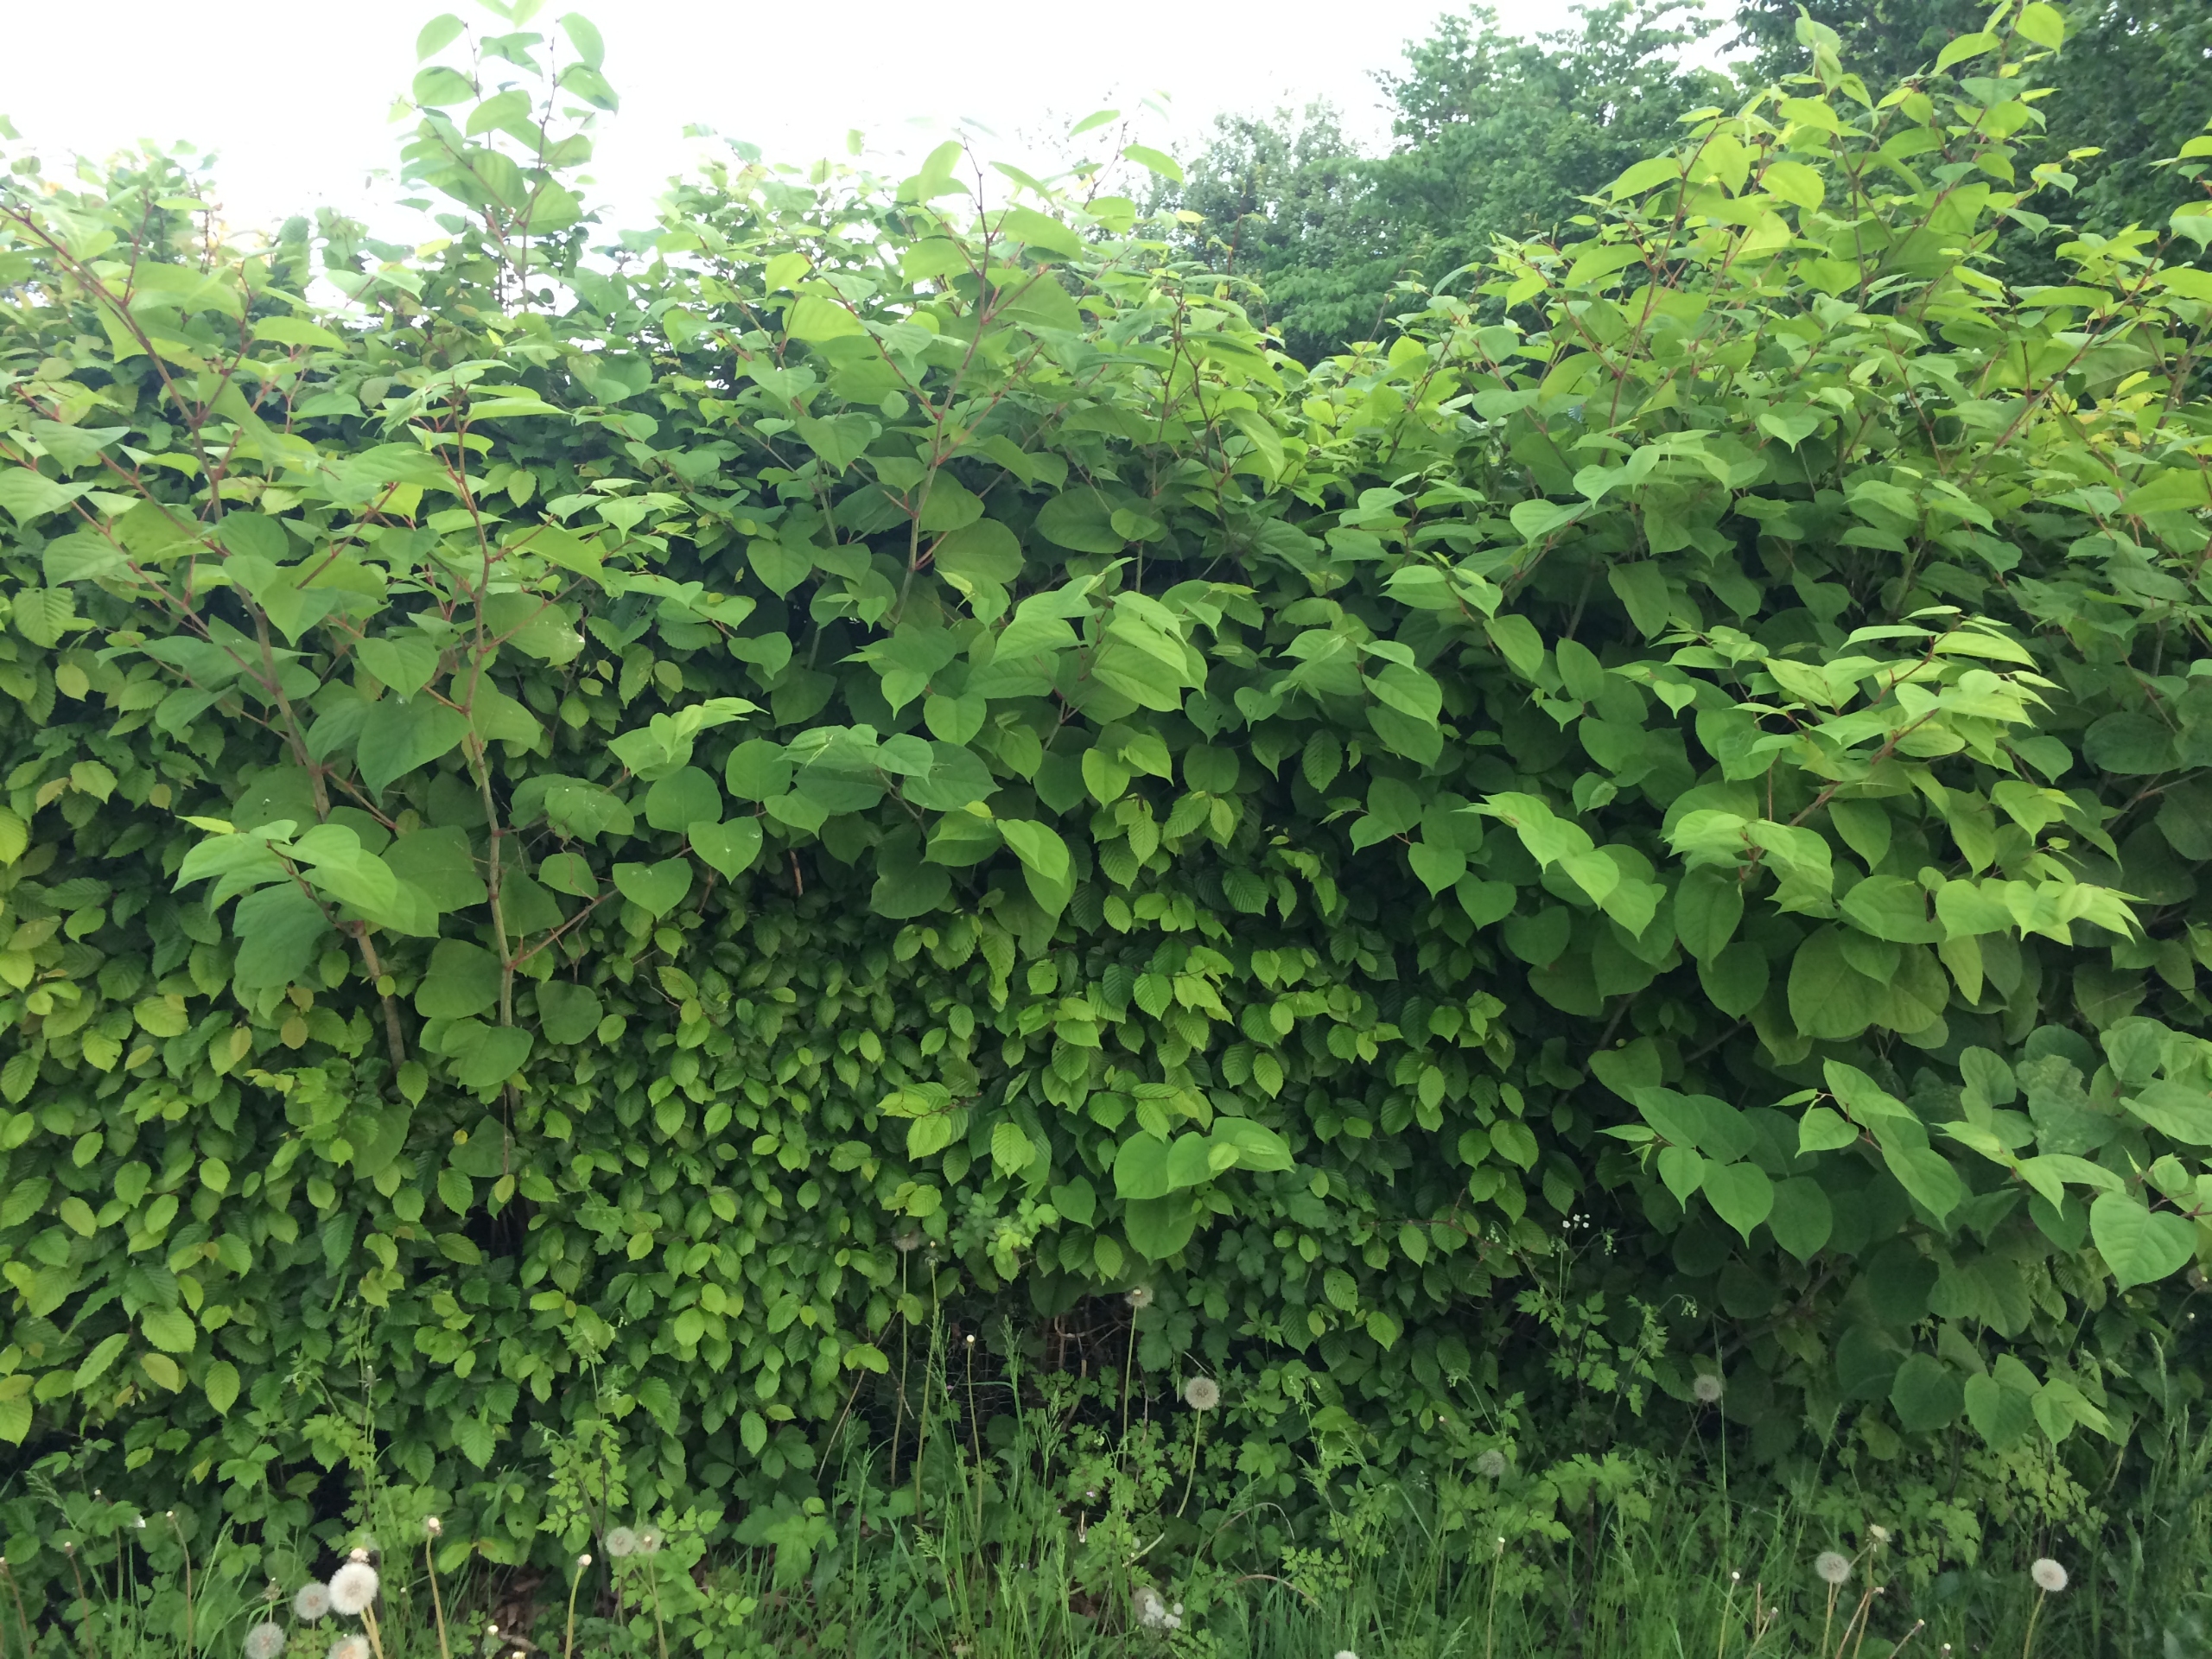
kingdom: Plantae
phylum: Tracheophyta
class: Magnoliopsida
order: Caryophyllales
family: Polygonaceae
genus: Reynoutria
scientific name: Reynoutria japonica
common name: Japan-pileurt
